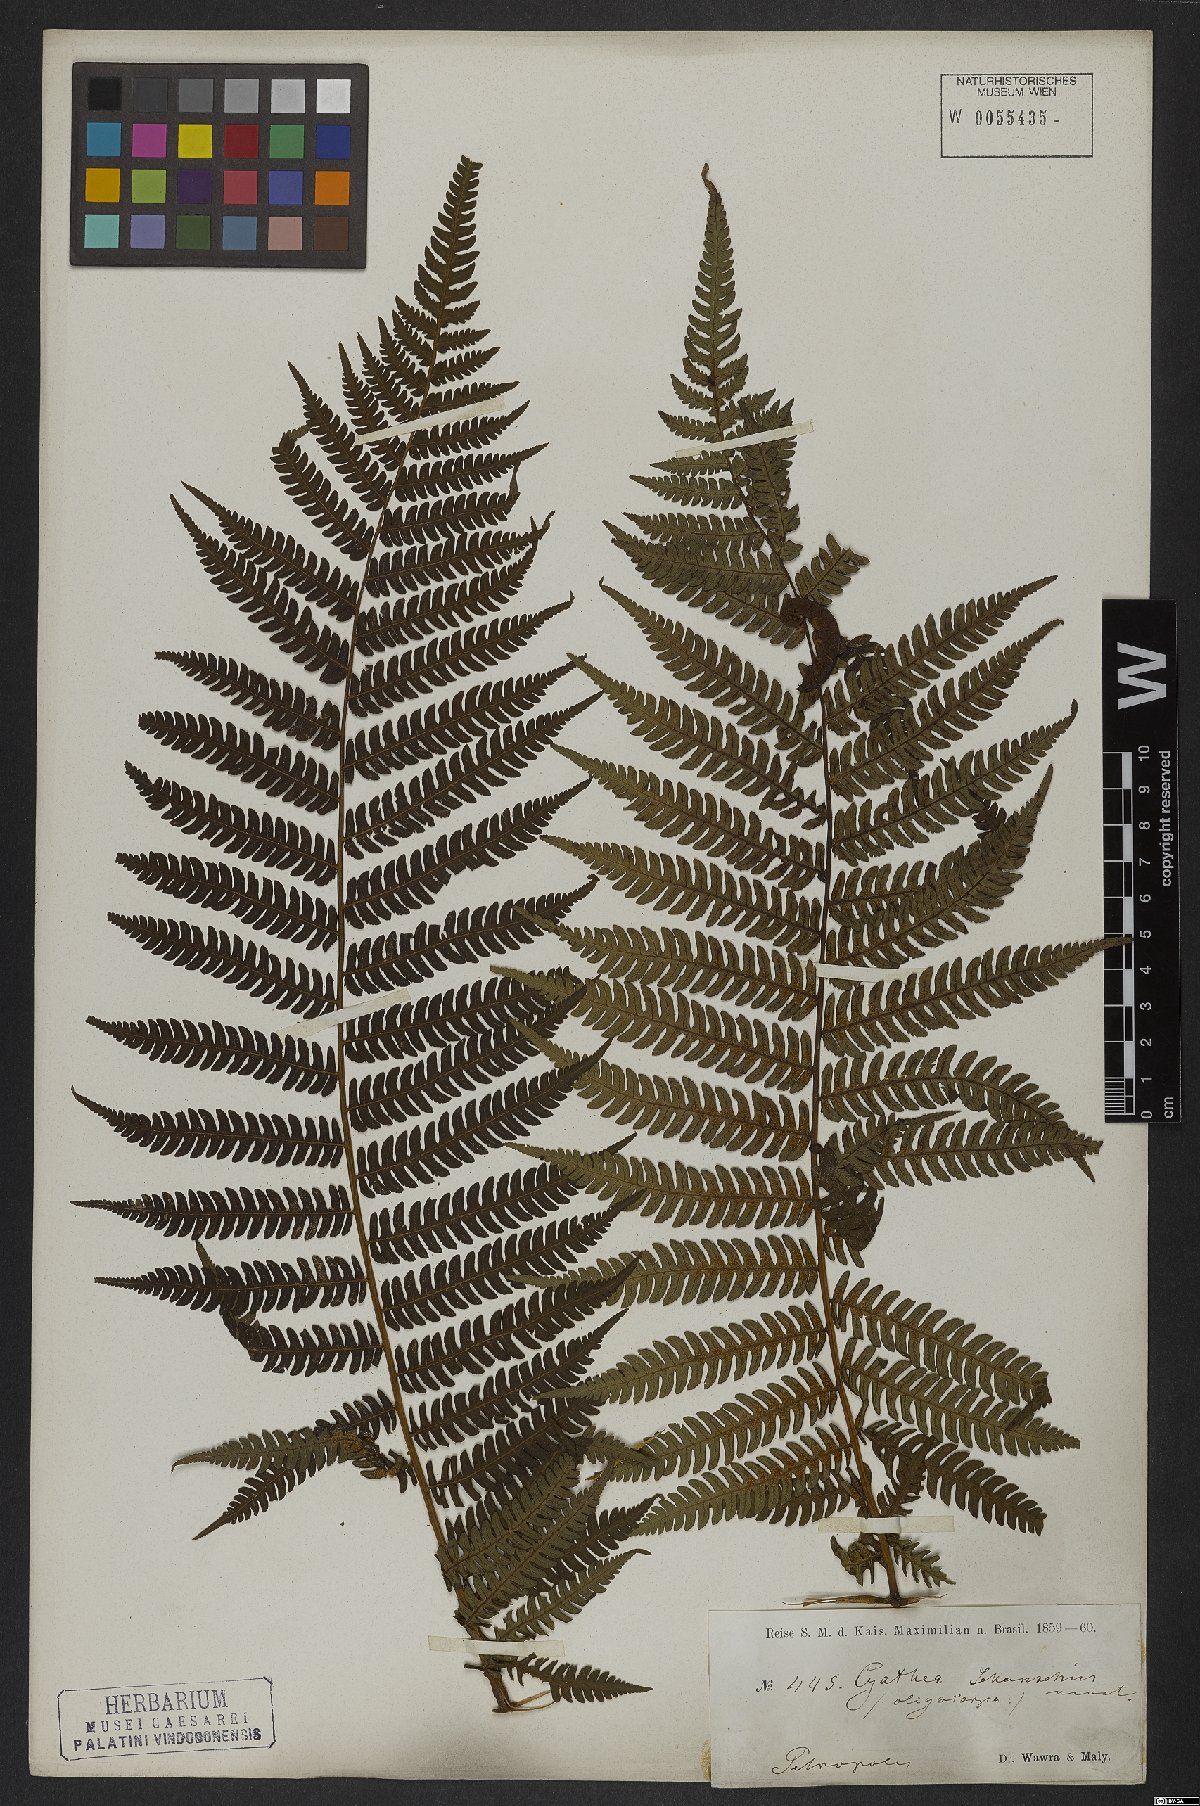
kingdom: Plantae
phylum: Tracheophyta
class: Polypodiopsida
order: Cyatheales
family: Cyatheaceae
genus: Cyathea
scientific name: Cyathea delgadii
